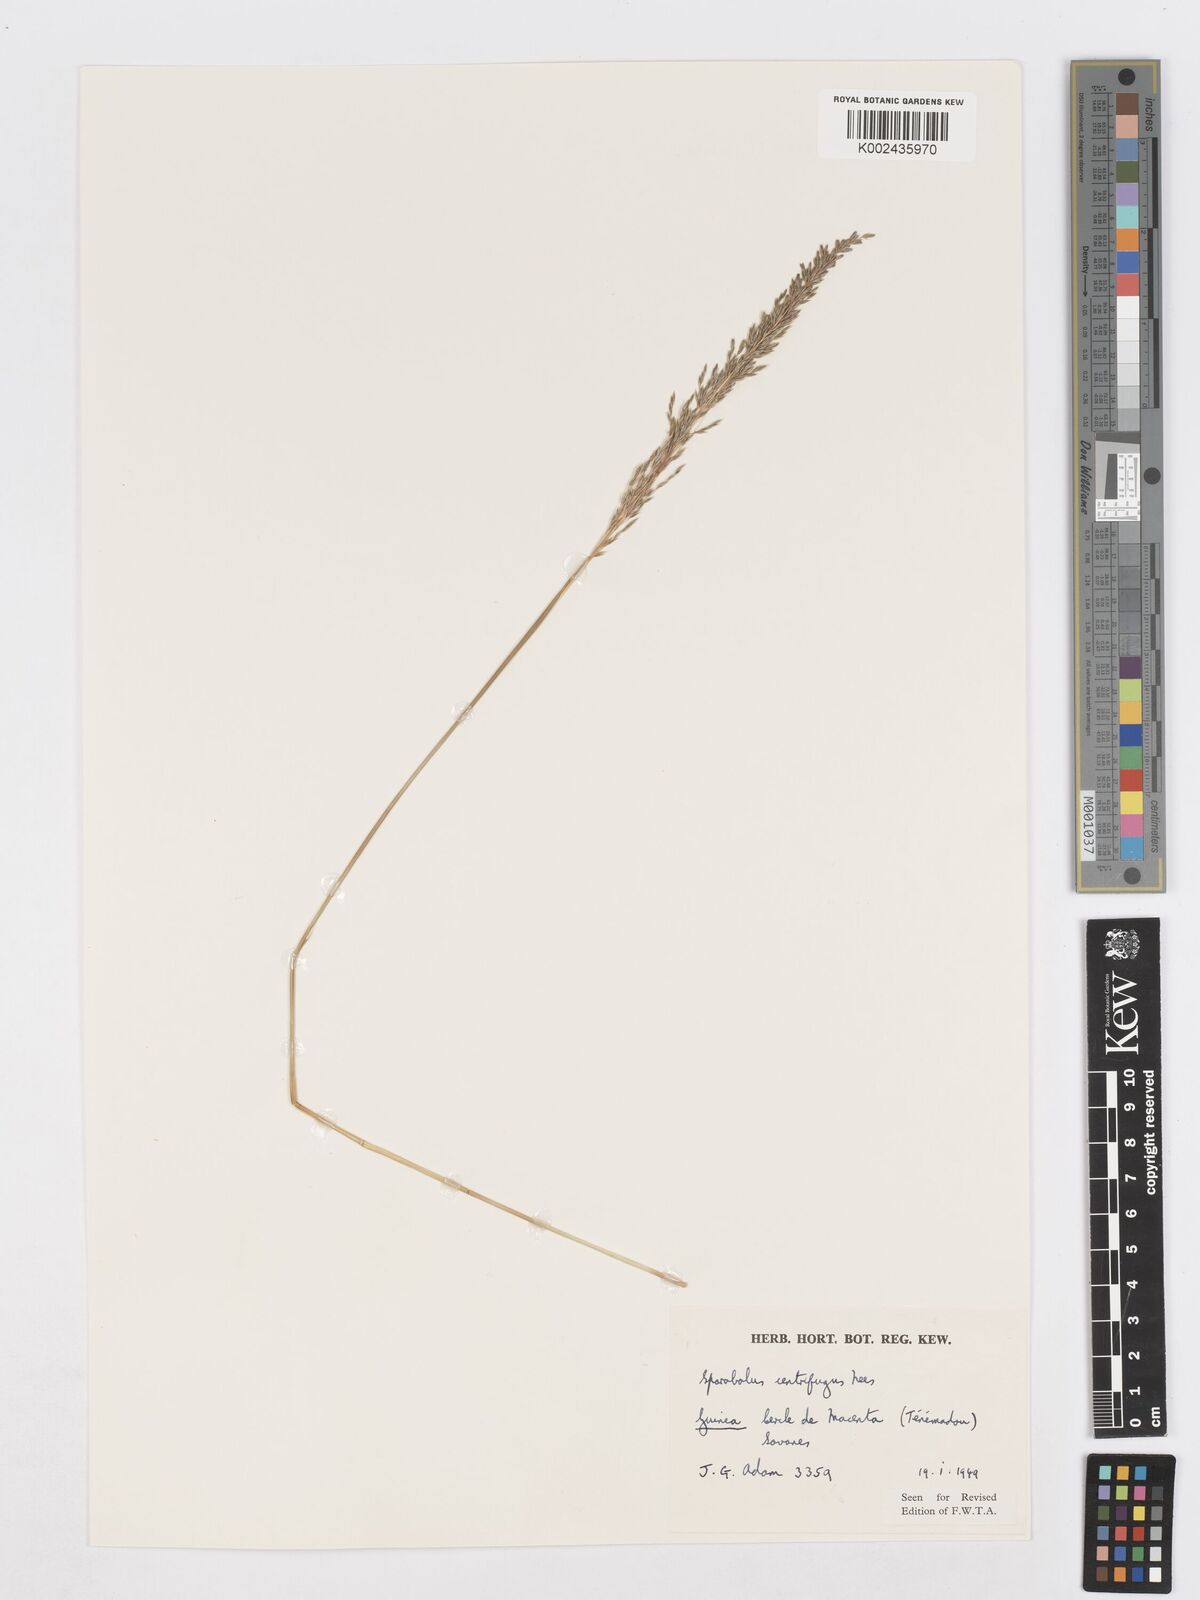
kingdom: Plantae
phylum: Tracheophyta
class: Liliopsida
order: Poales
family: Poaceae
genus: Sporobolus
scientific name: Sporobolus subulatus
